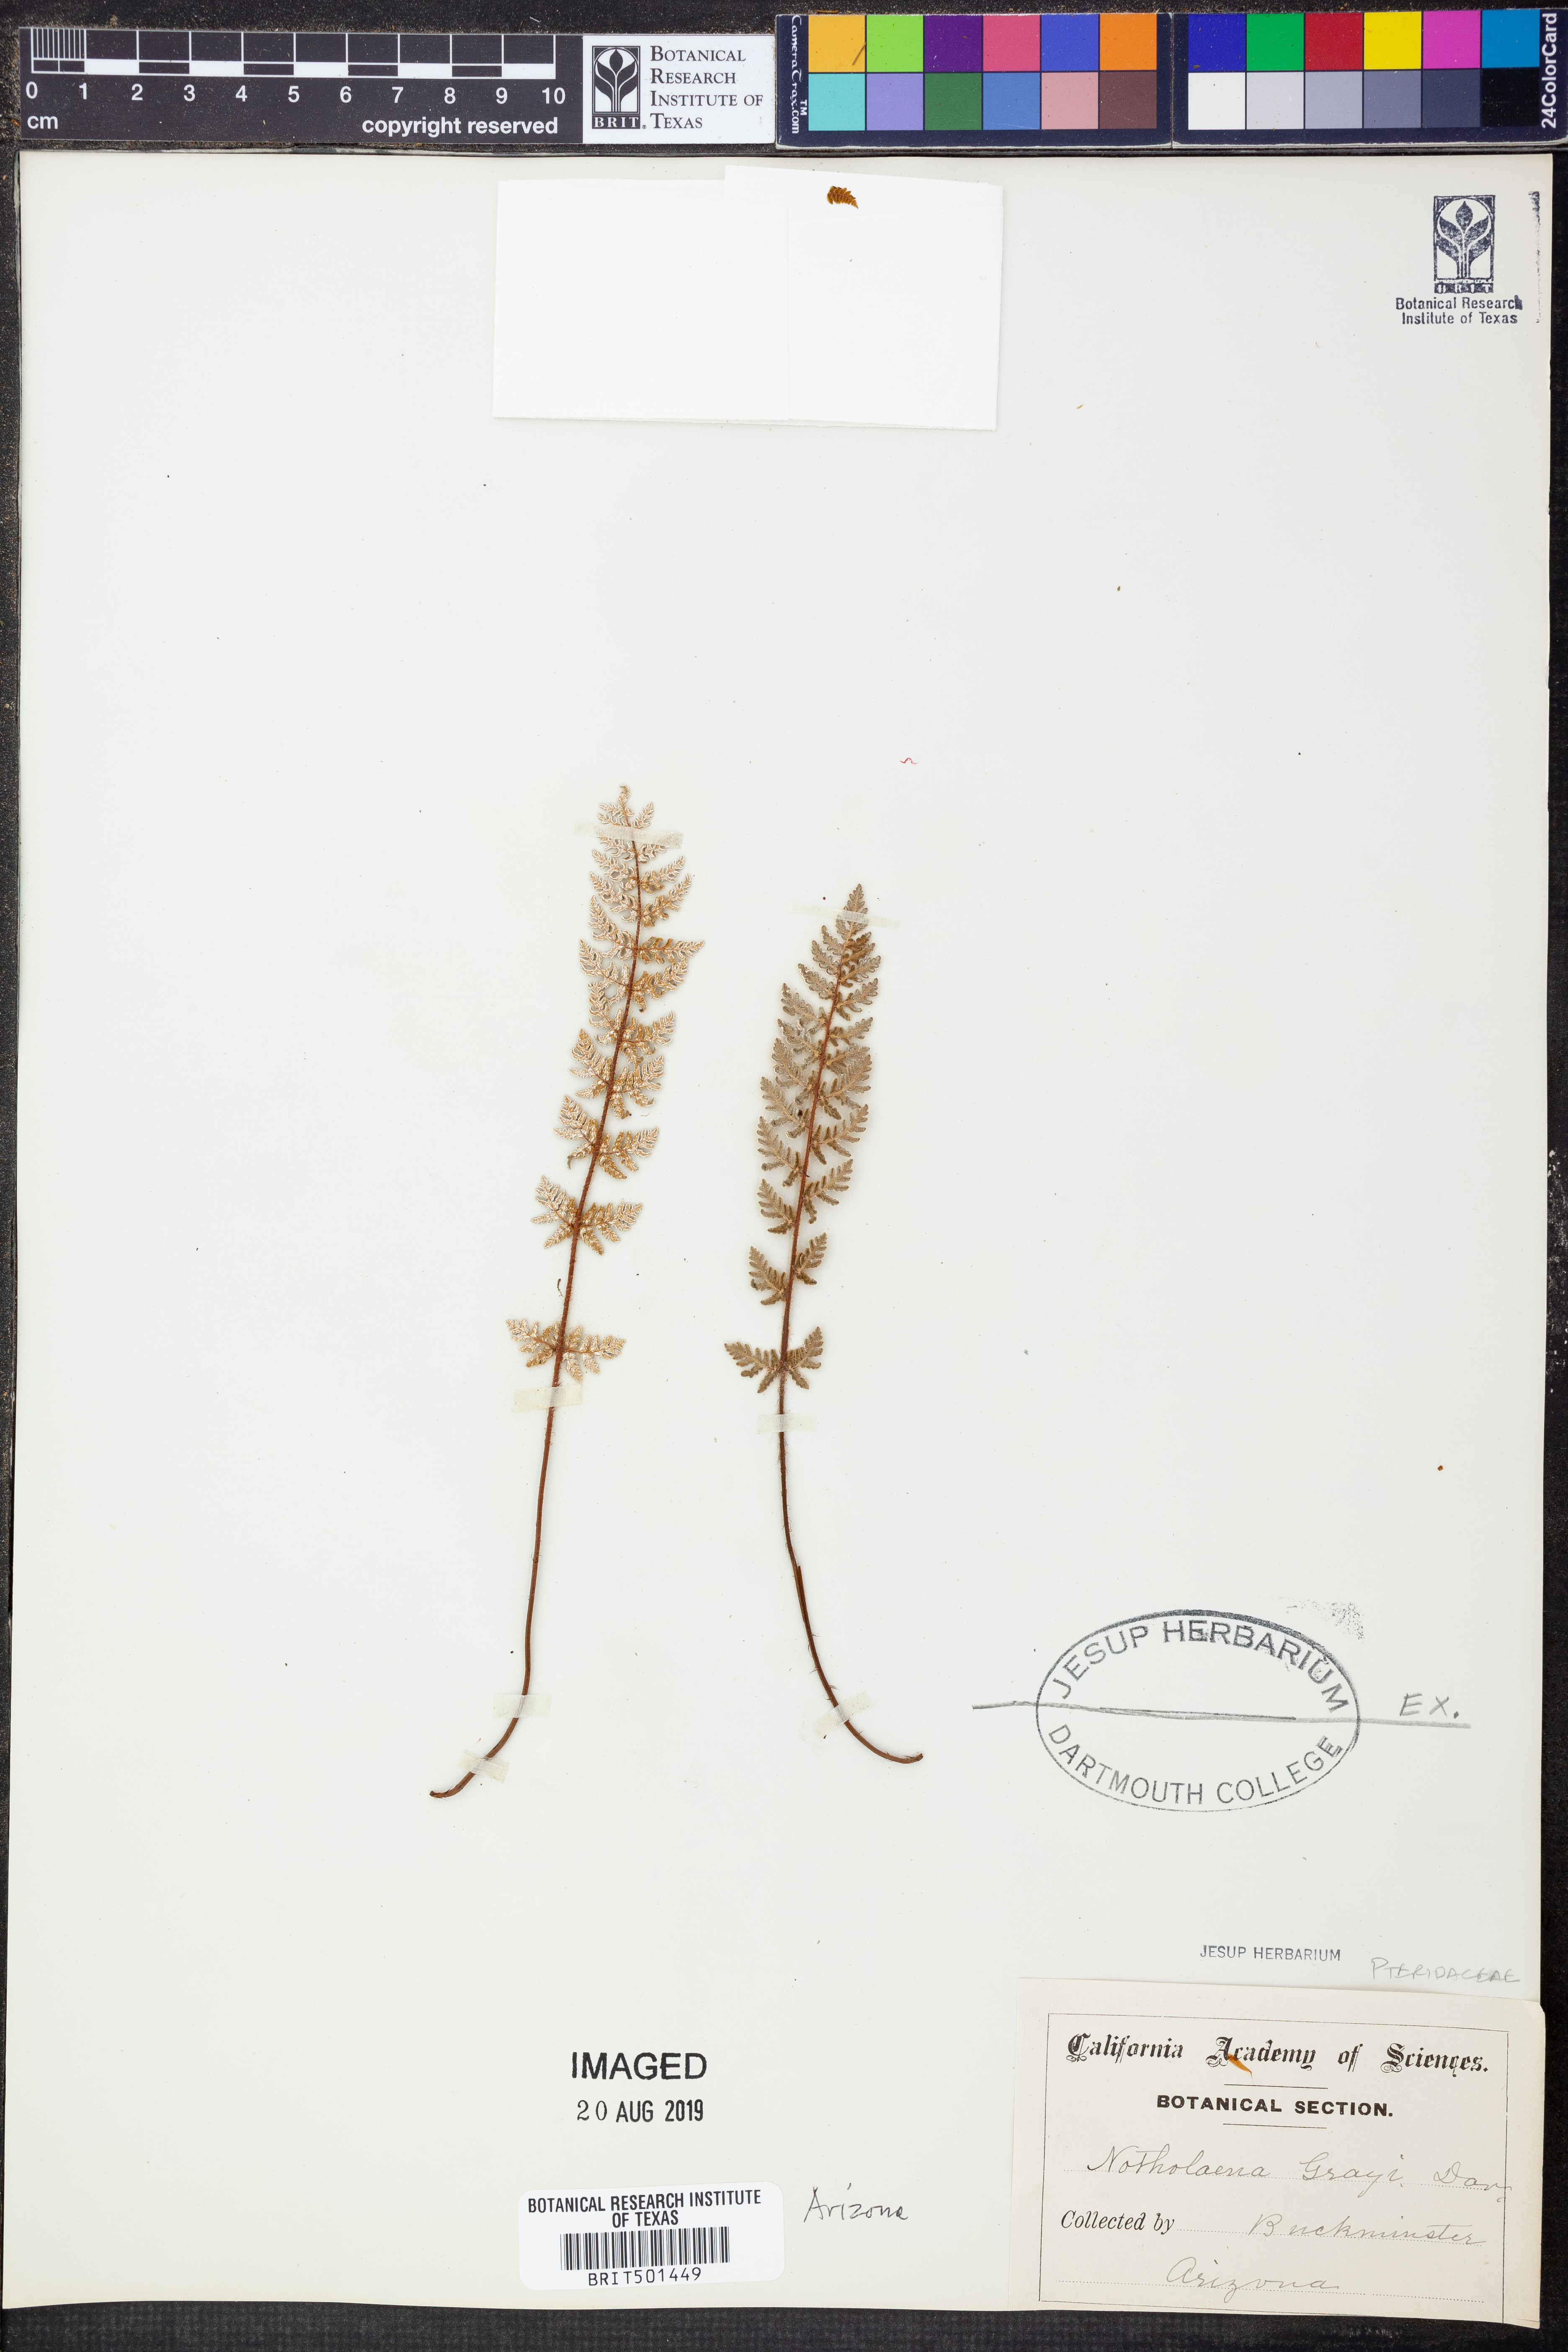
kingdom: Plantae
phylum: Tracheophyta
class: Polypodiopsida
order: Polypodiales
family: Pteridaceae
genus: Notholaena
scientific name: Notholaena grayi
